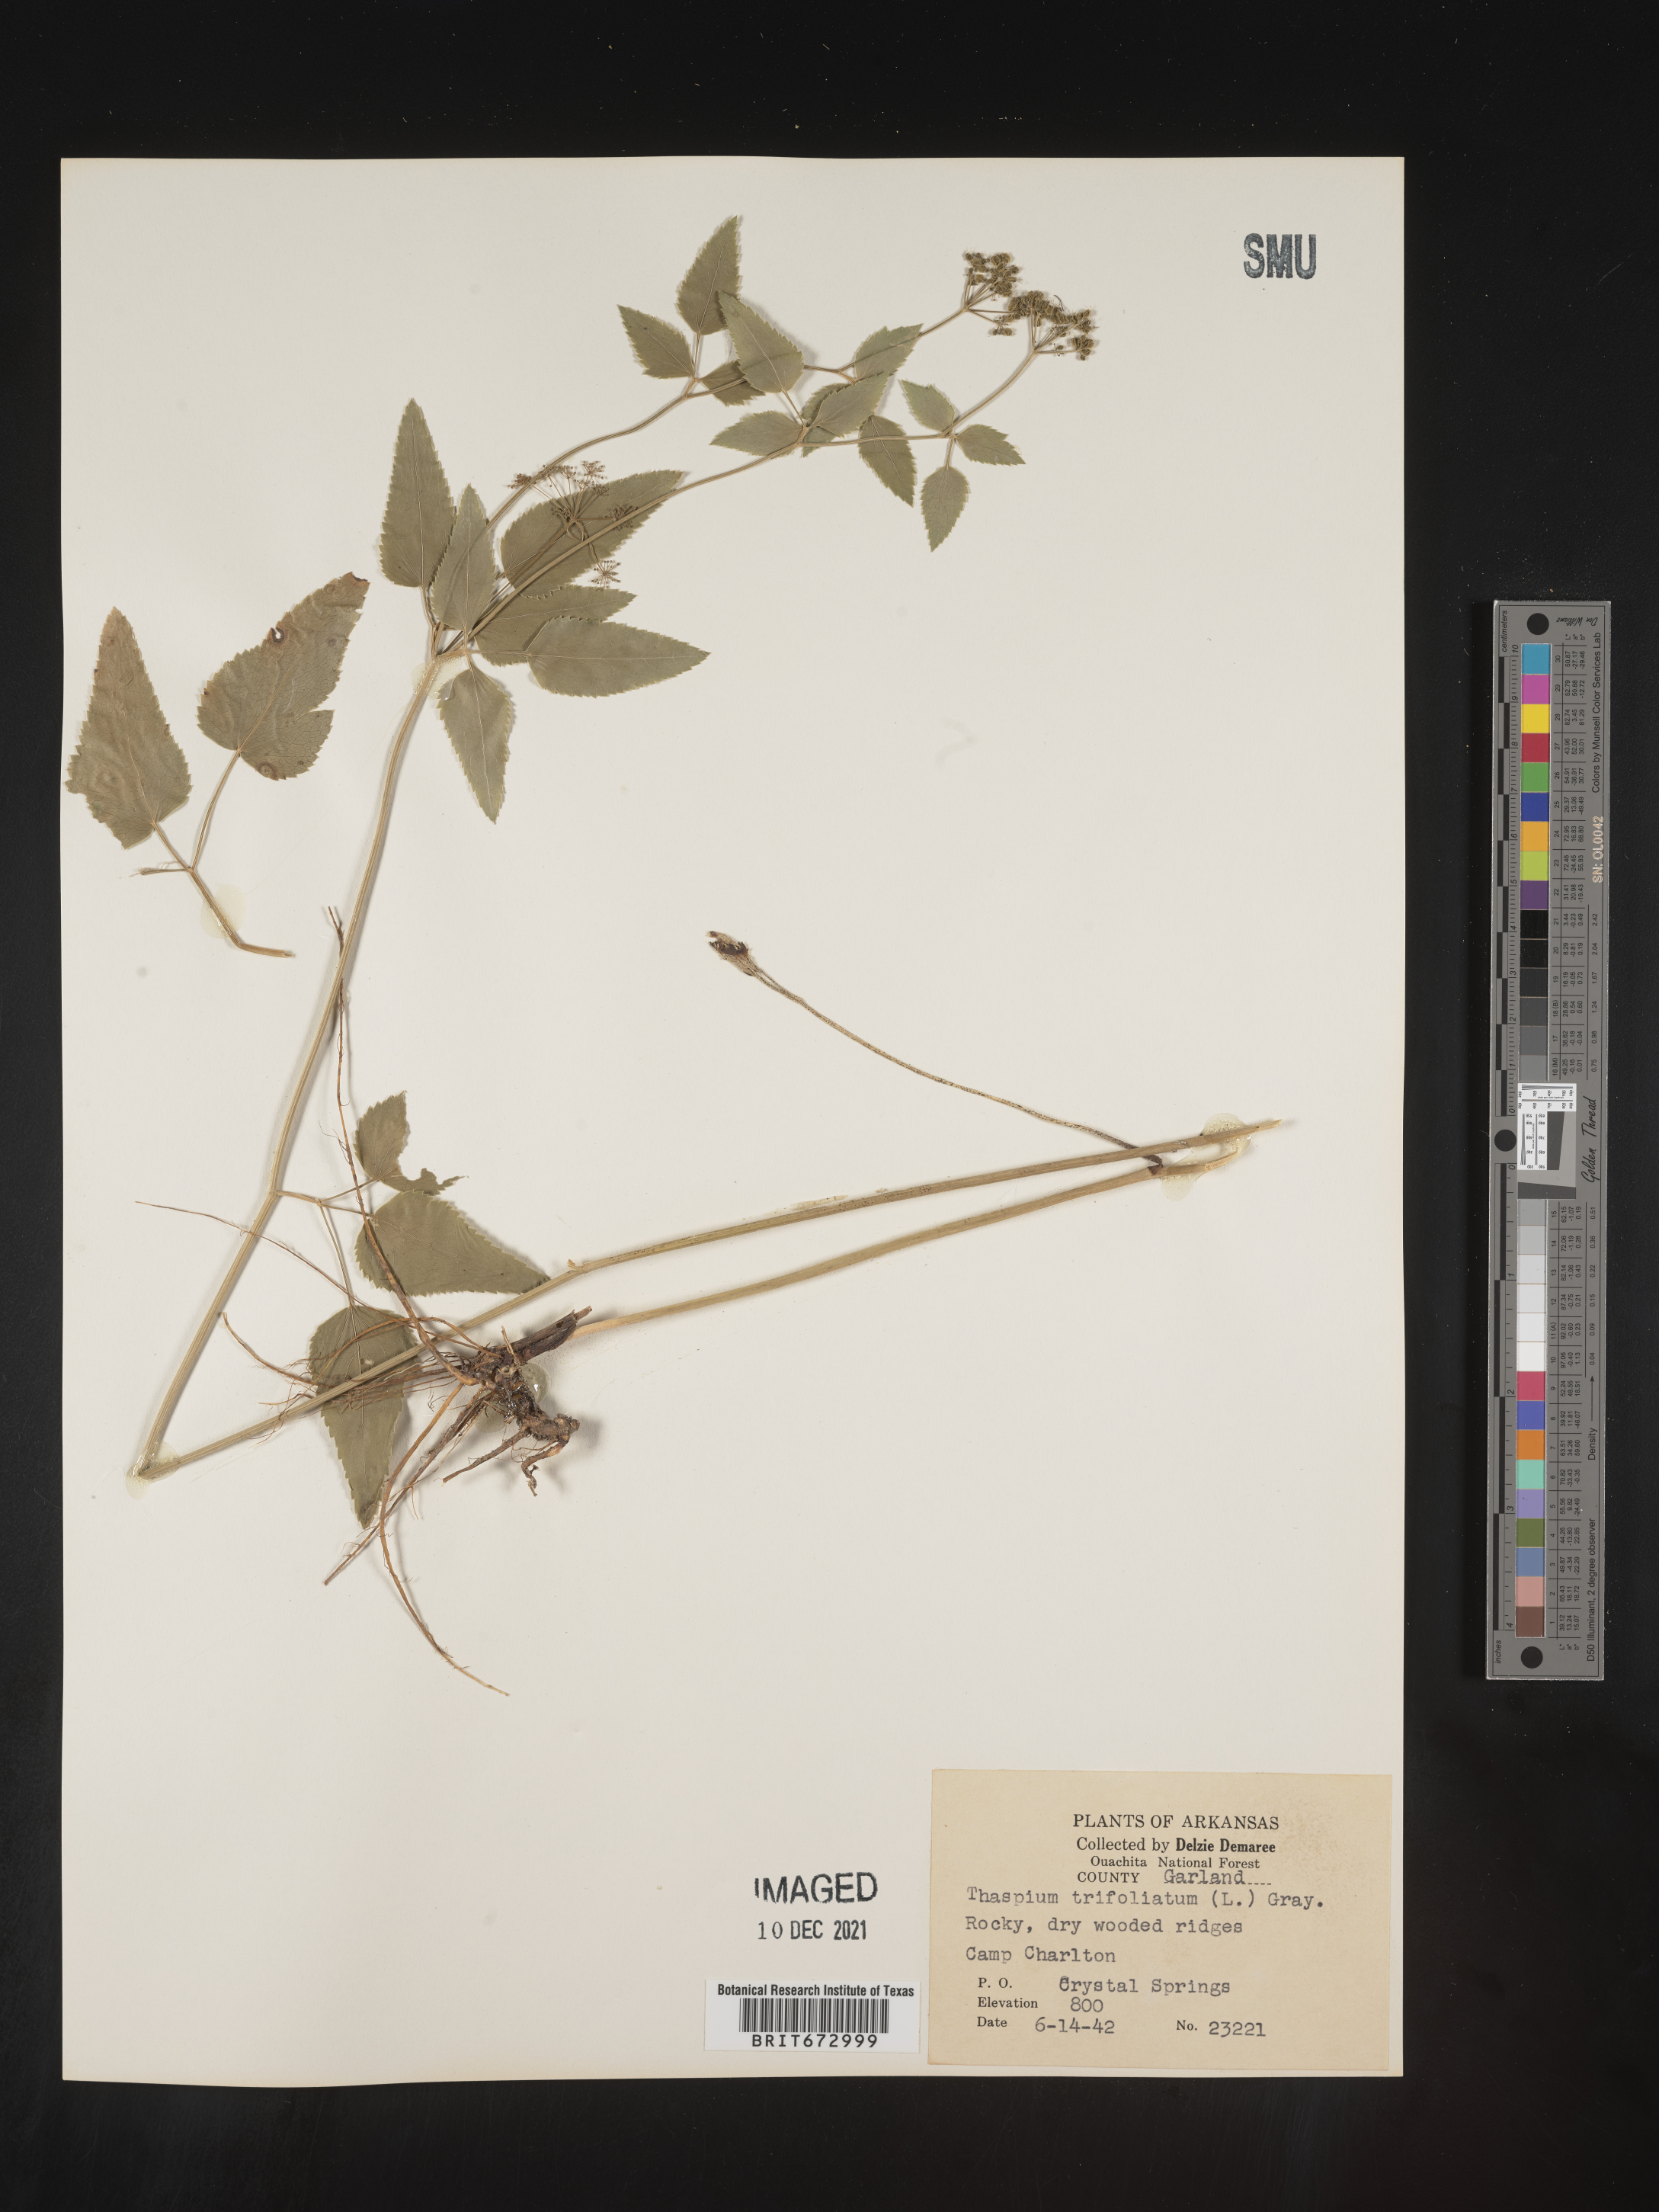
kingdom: Plantae
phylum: Tracheophyta
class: Magnoliopsida
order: Apiales
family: Apiaceae
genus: Thaspium
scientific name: Thaspium
